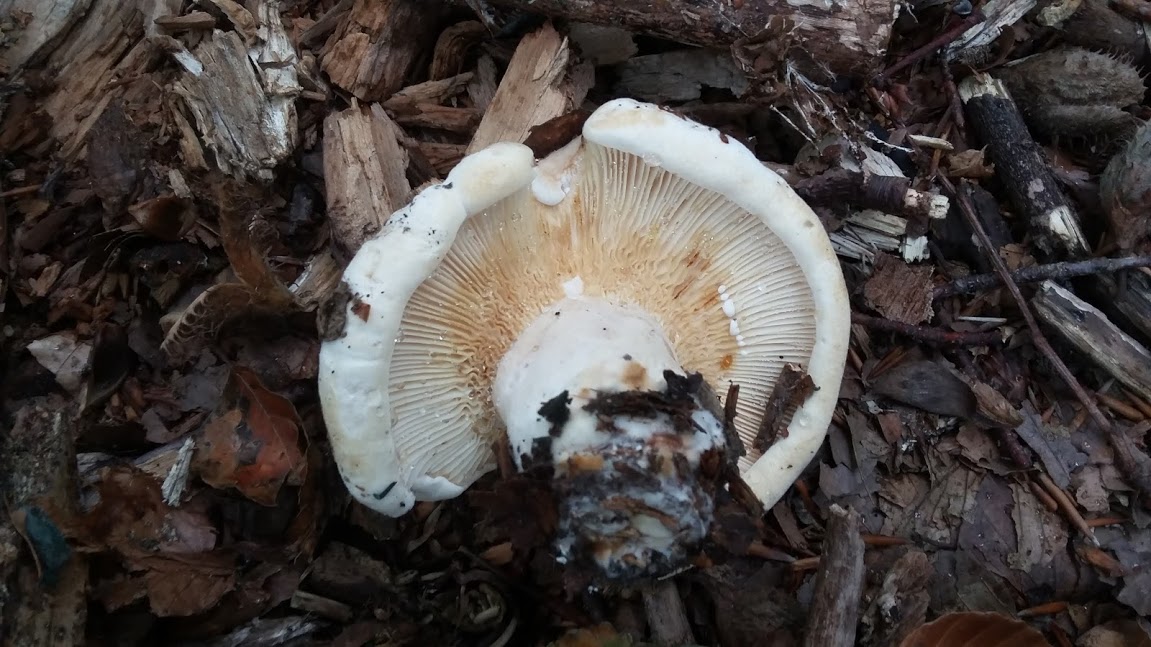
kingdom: Fungi
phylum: Basidiomycota
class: Agaricomycetes
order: Russulales
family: Russulaceae
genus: Lactifluus
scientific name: Lactifluus vellereus
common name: hvidfiltet mælkehat
